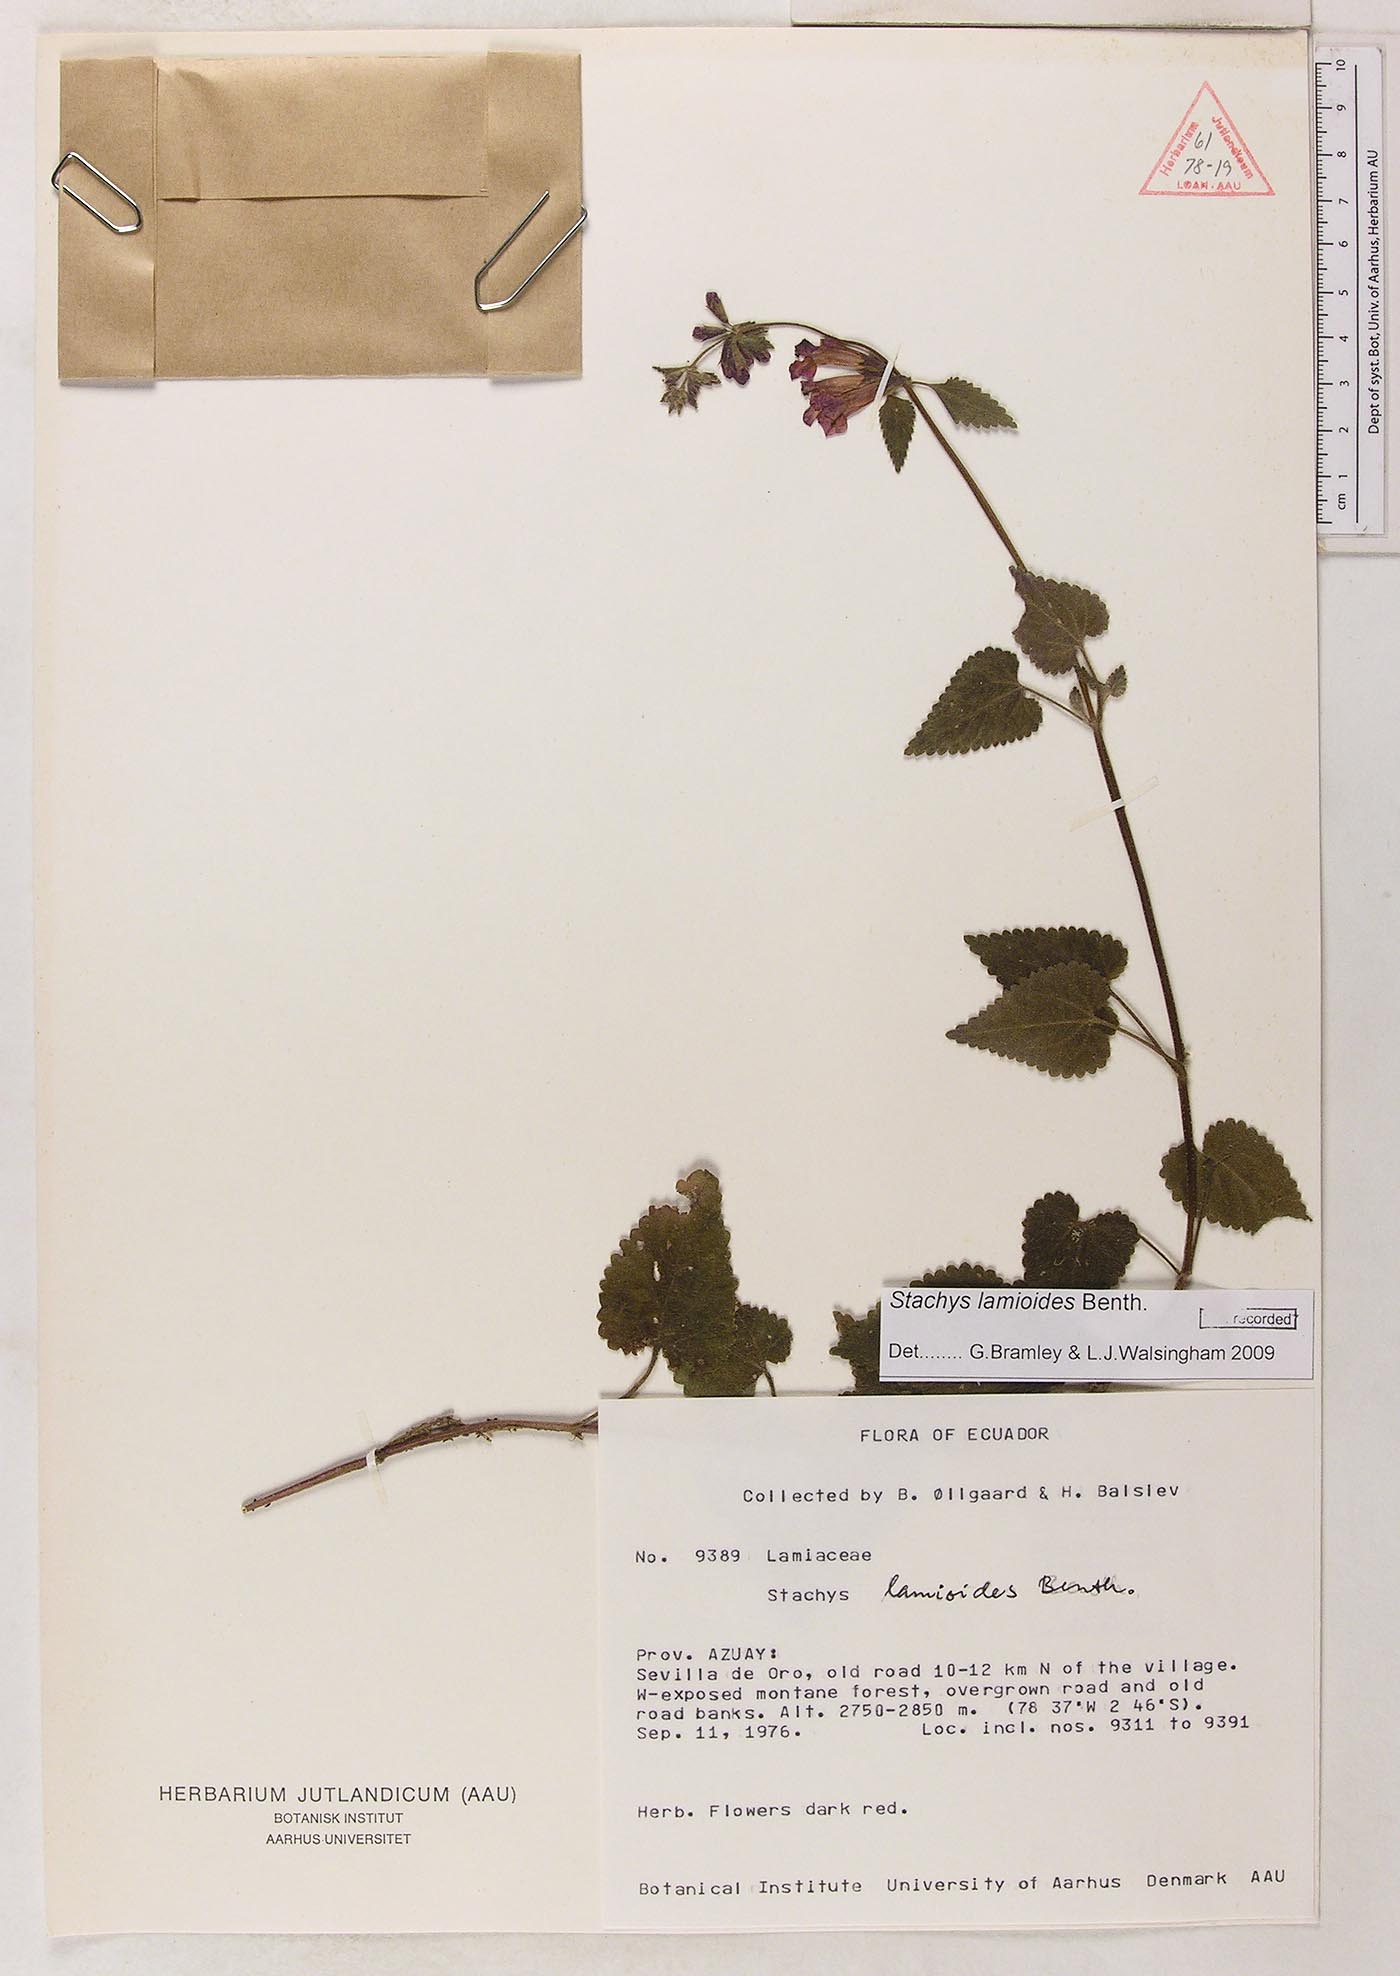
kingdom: Plantae
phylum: Tracheophyta
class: Magnoliopsida
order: Lamiales
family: Lamiaceae
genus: Stachys
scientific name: Stachys lamioides
